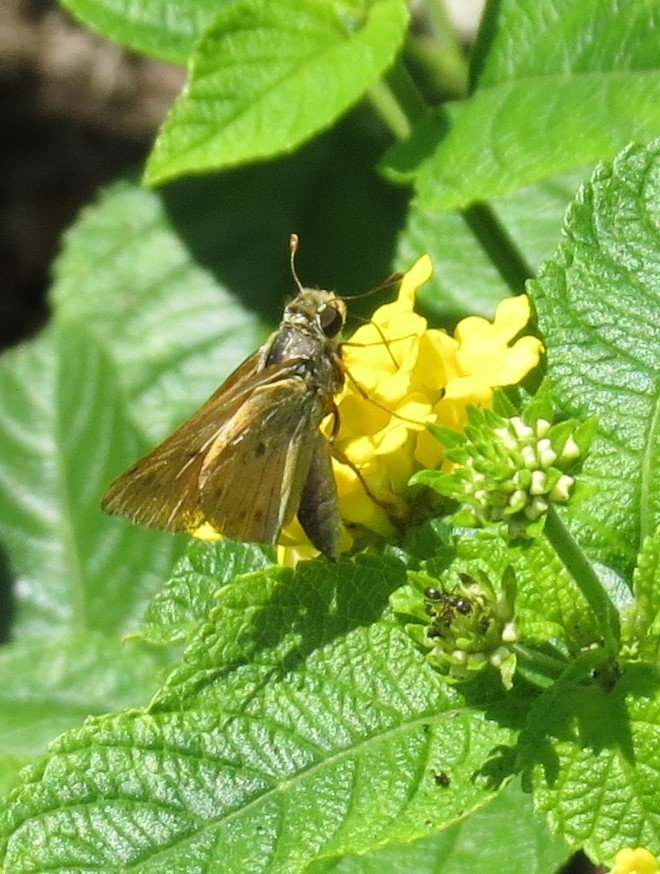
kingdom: Animalia
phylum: Arthropoda
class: Insecta
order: Lepidoptera
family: Hesperiidae
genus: Hylephila
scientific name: Hylephila phyleus
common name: Fiery Skipper
